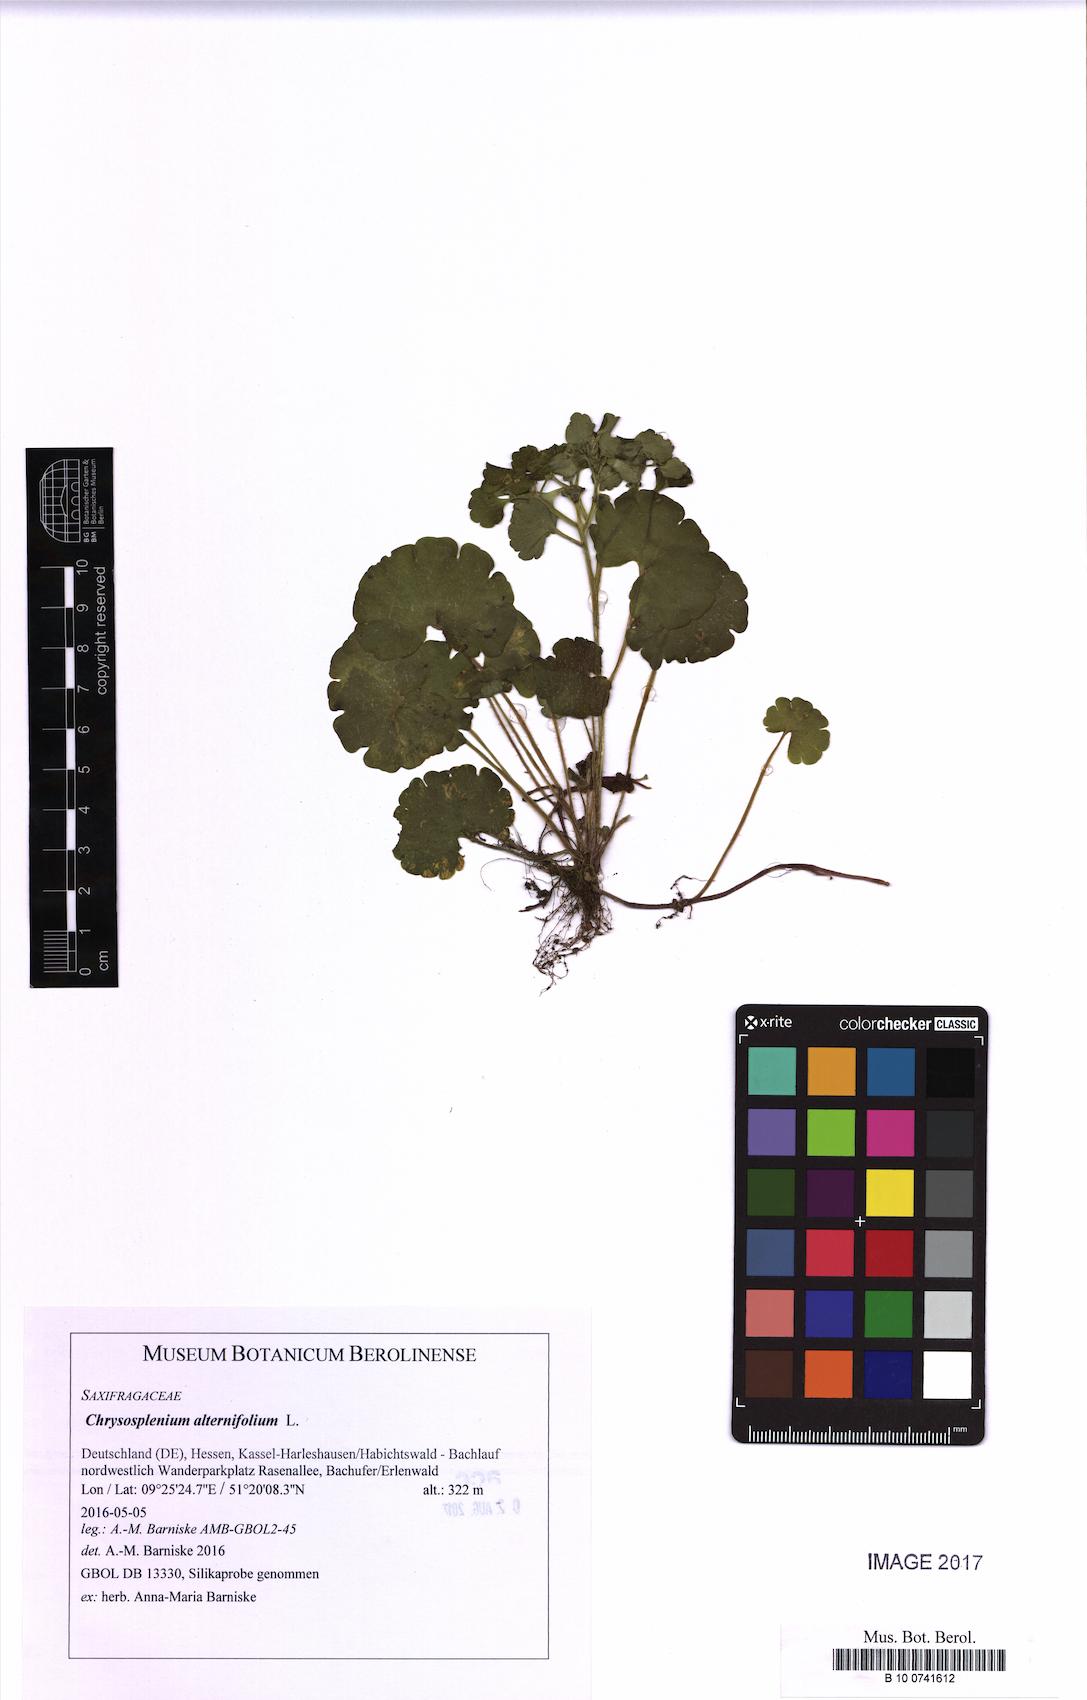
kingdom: Plantae
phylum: Tracheophyta
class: Magnoliopsida
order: Saxifragales
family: Saxifragaceae
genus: Chrysosplenium
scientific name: Chrysosplenium alternifolium
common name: Alternate-leaved golden-saxifrage
